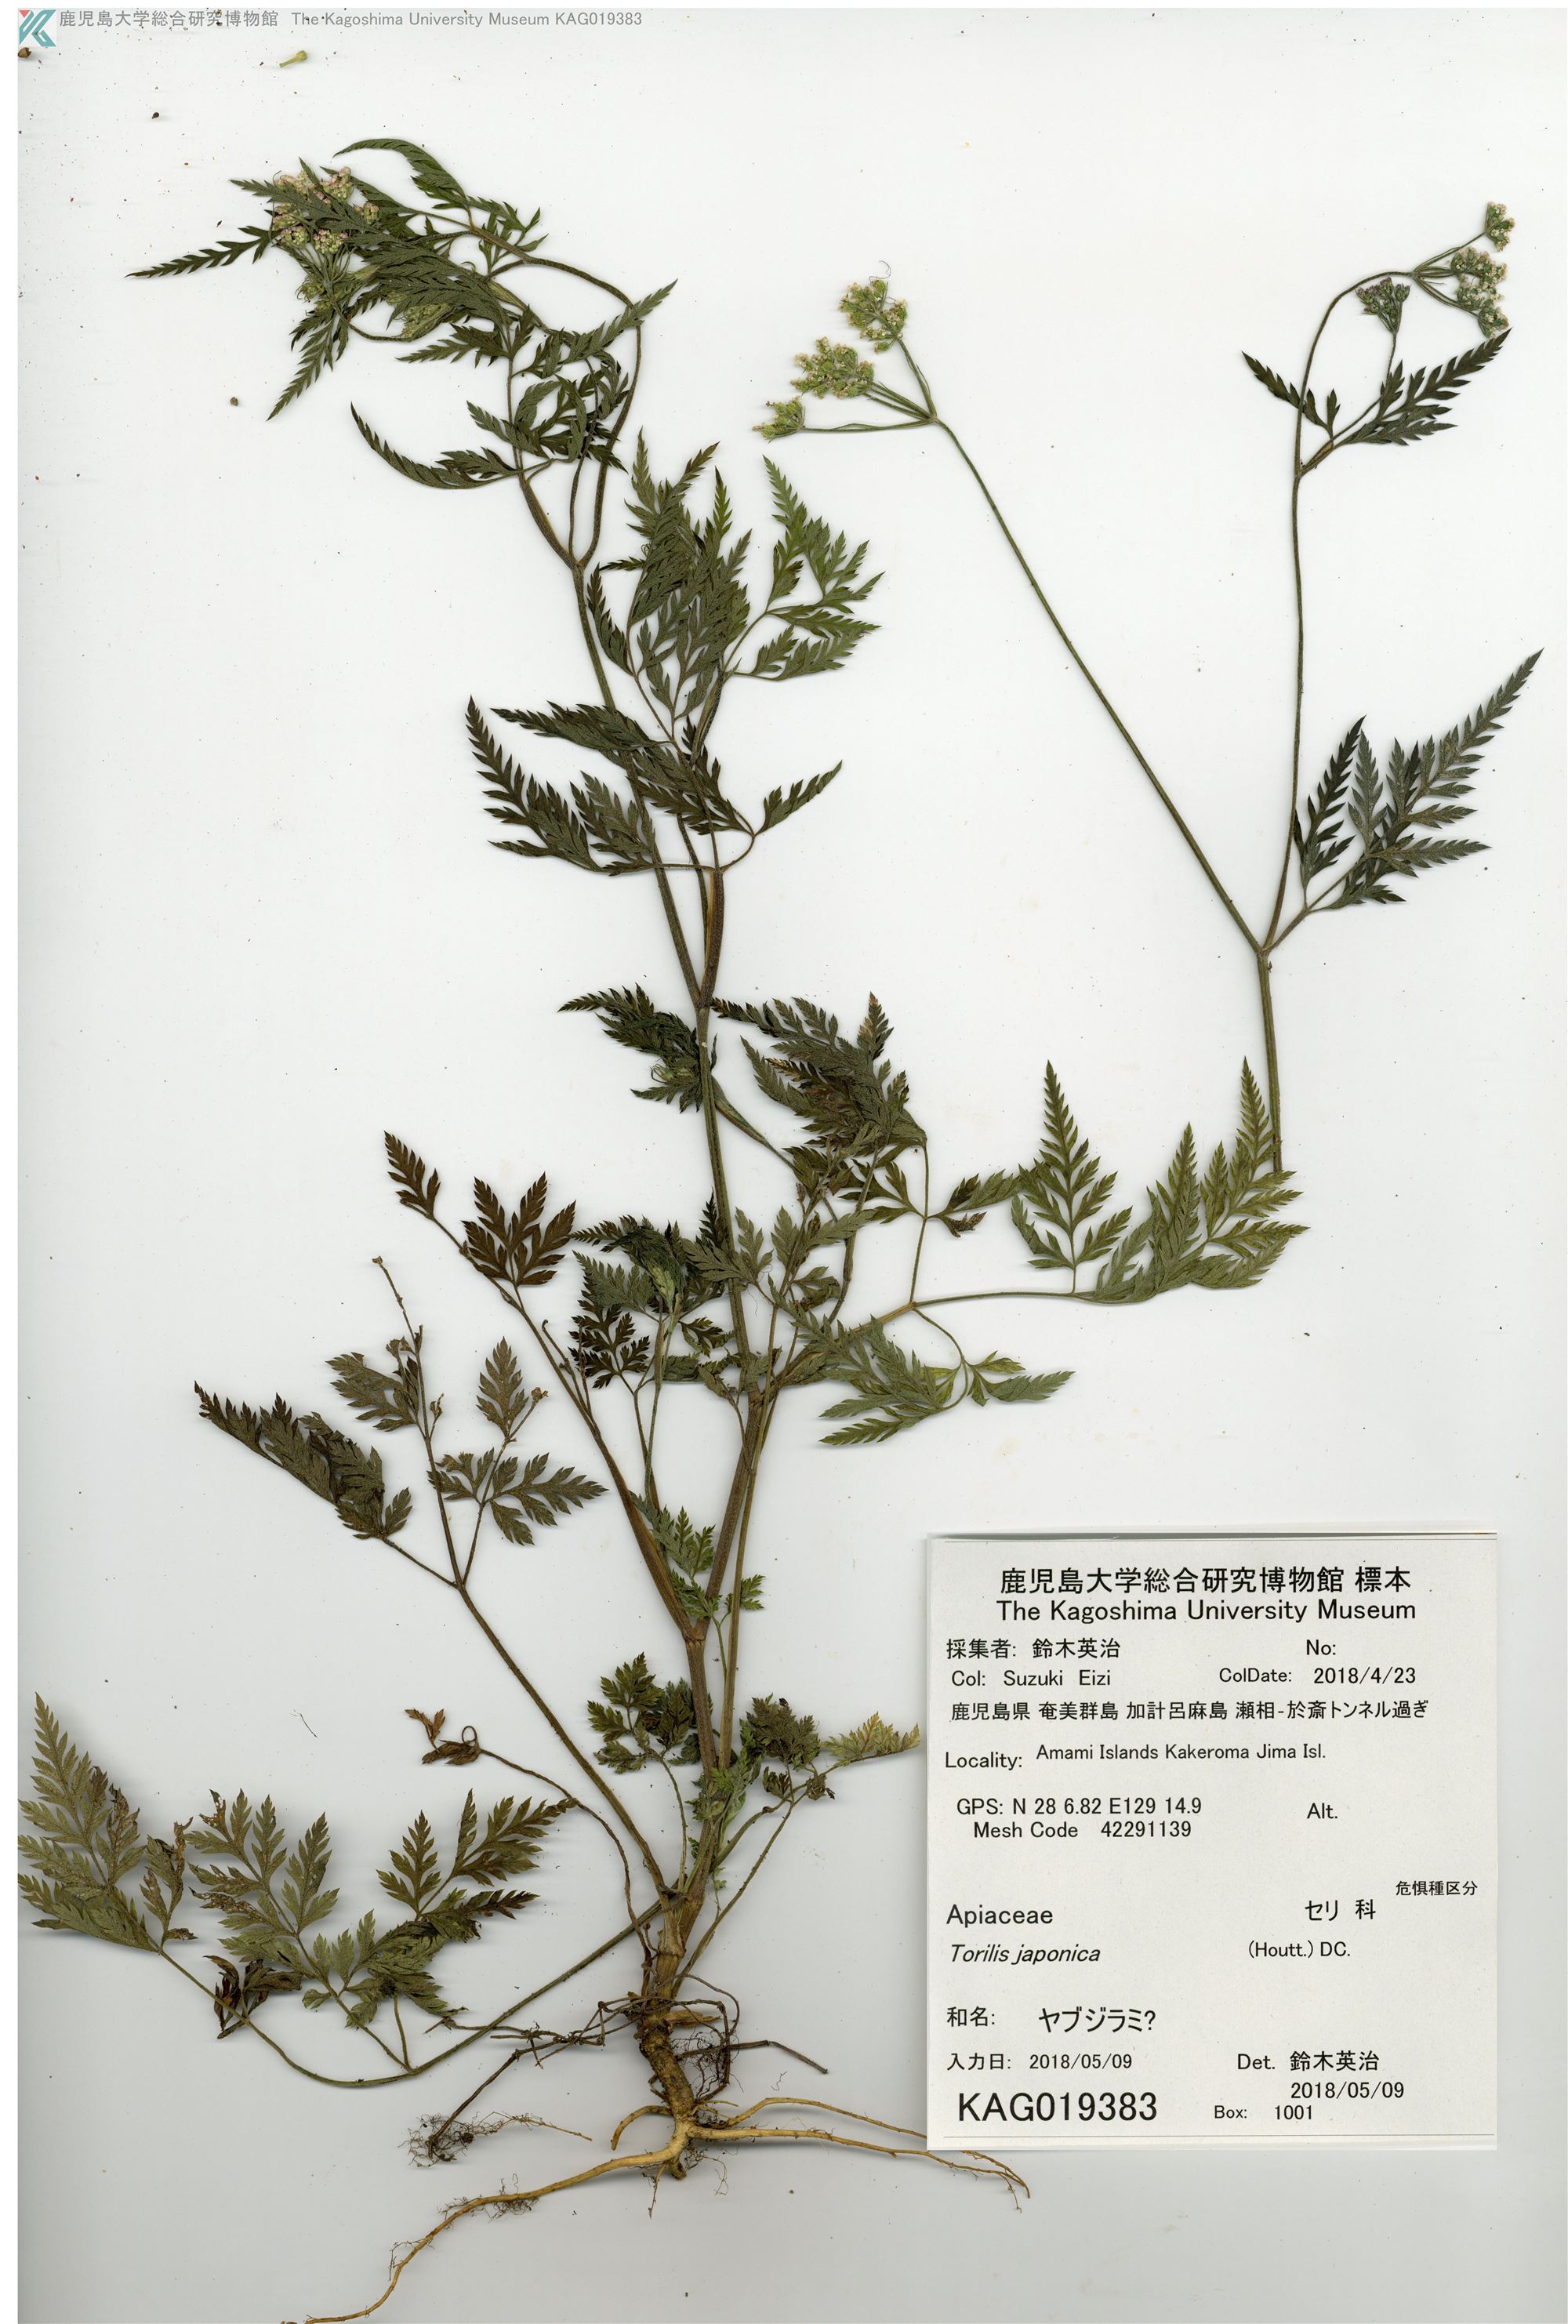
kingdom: Plantae
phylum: Tracheophyta
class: Magnoliopsida
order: Apiales
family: Apiaceae
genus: Torilis
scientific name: Torilis scabra
